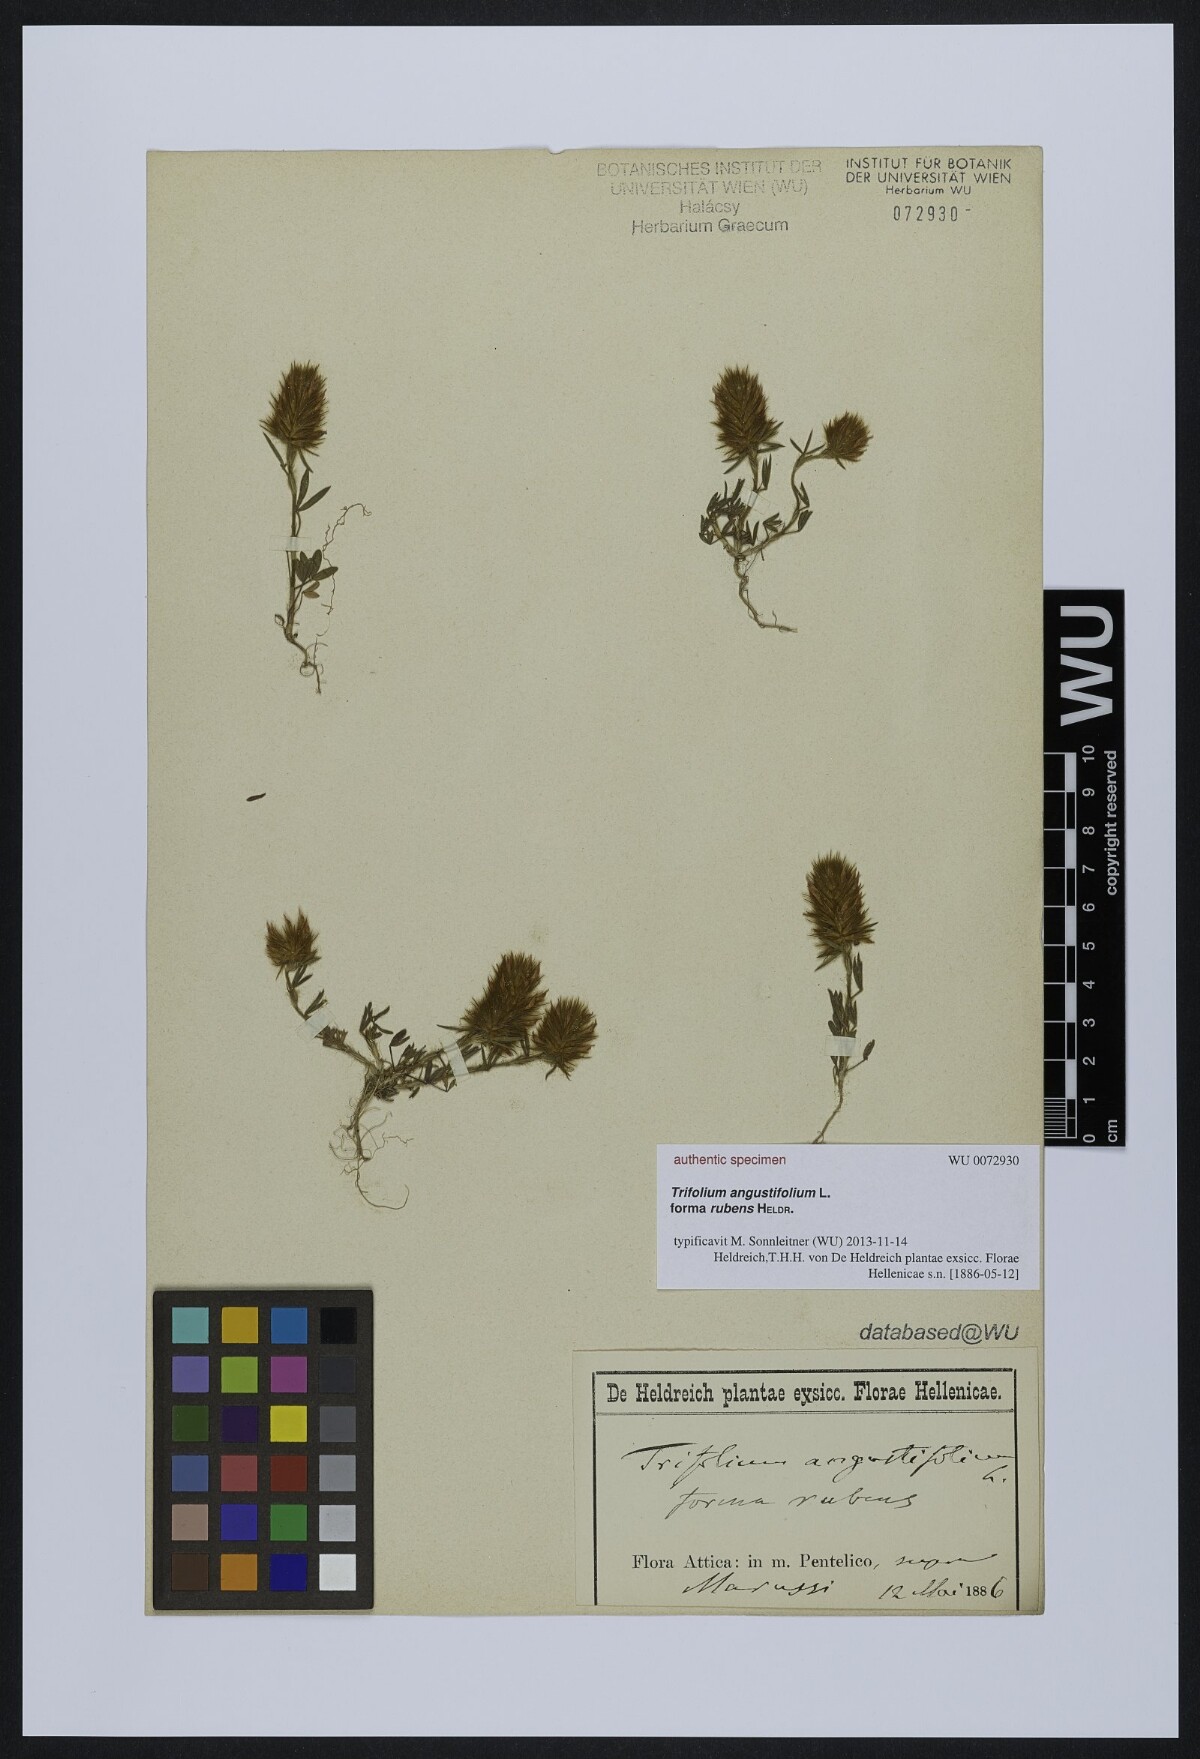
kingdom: Plantae
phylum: Tracheophyta
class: Magnoliopsida
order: Fabales
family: Fabaceae
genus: Trifolium
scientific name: Trifolium angustifolium
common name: Narrow clover
